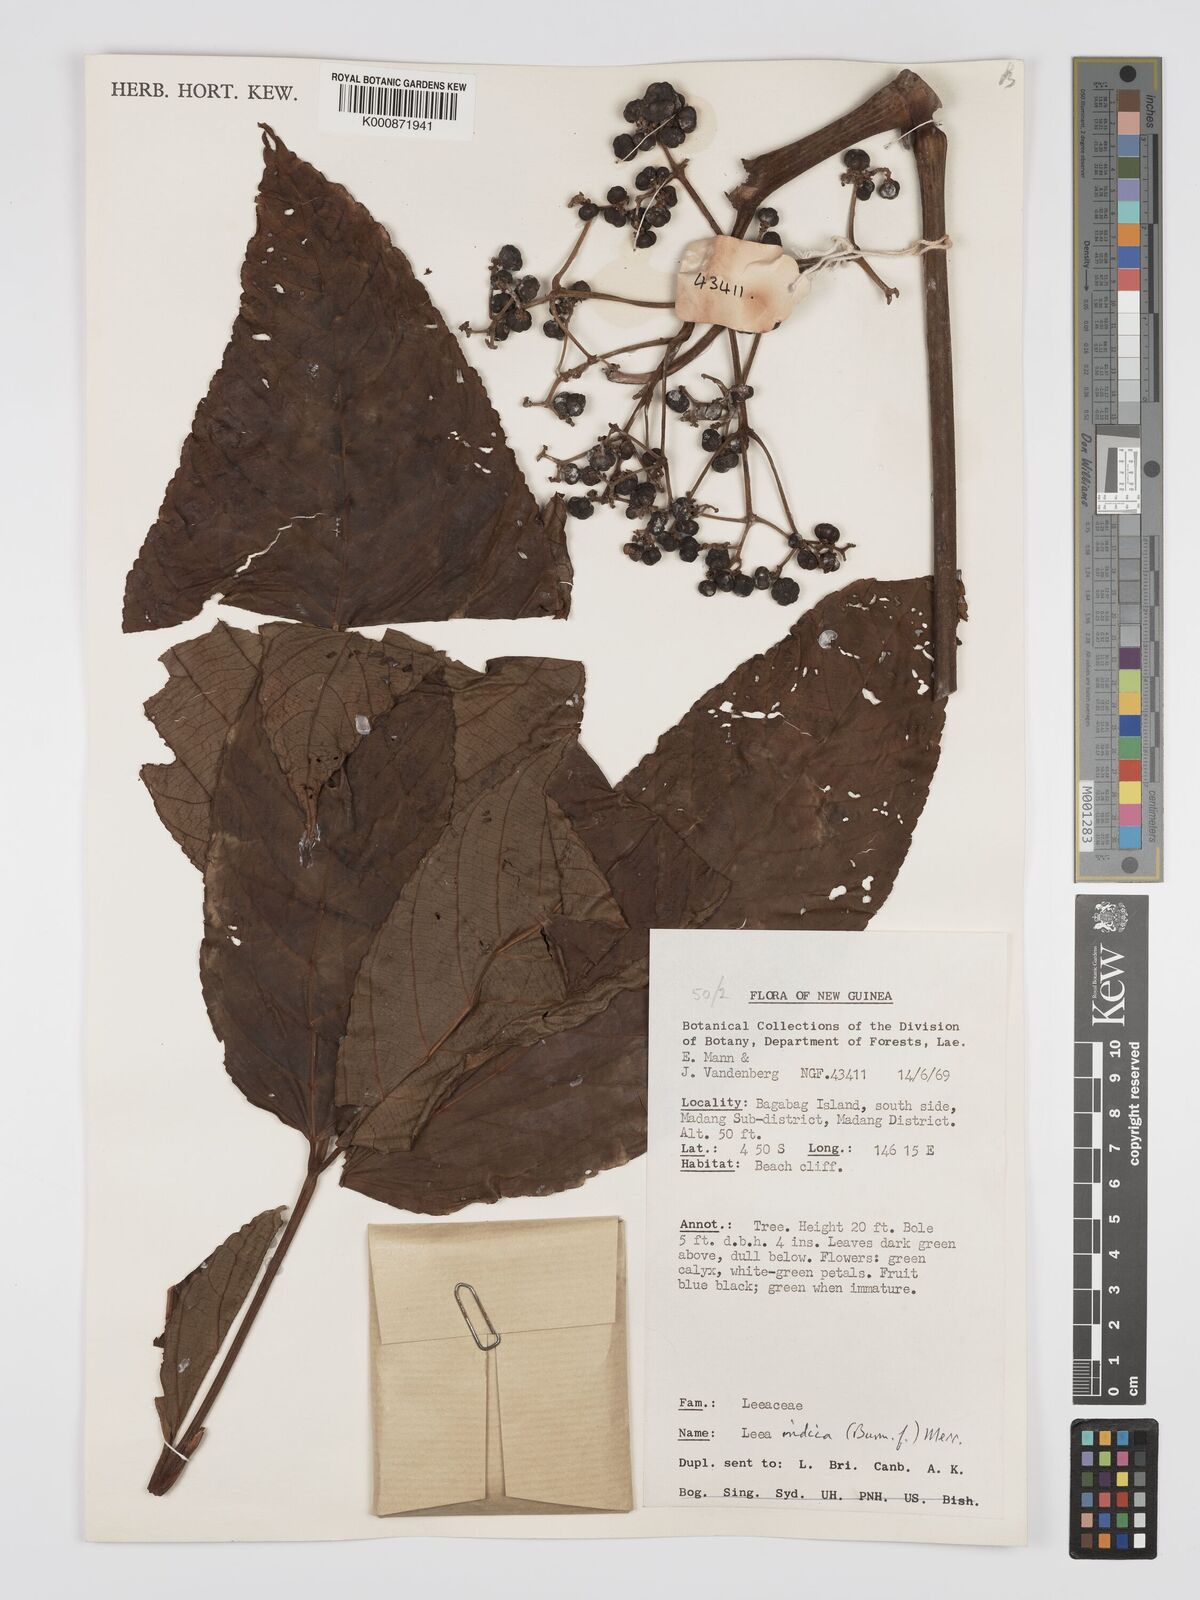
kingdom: Plantae
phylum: Tracheophyta
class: Magnoliopsida
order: Vitales
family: Vitaceae
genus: Leea
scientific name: Leea indica
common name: Bandicoot-berry
